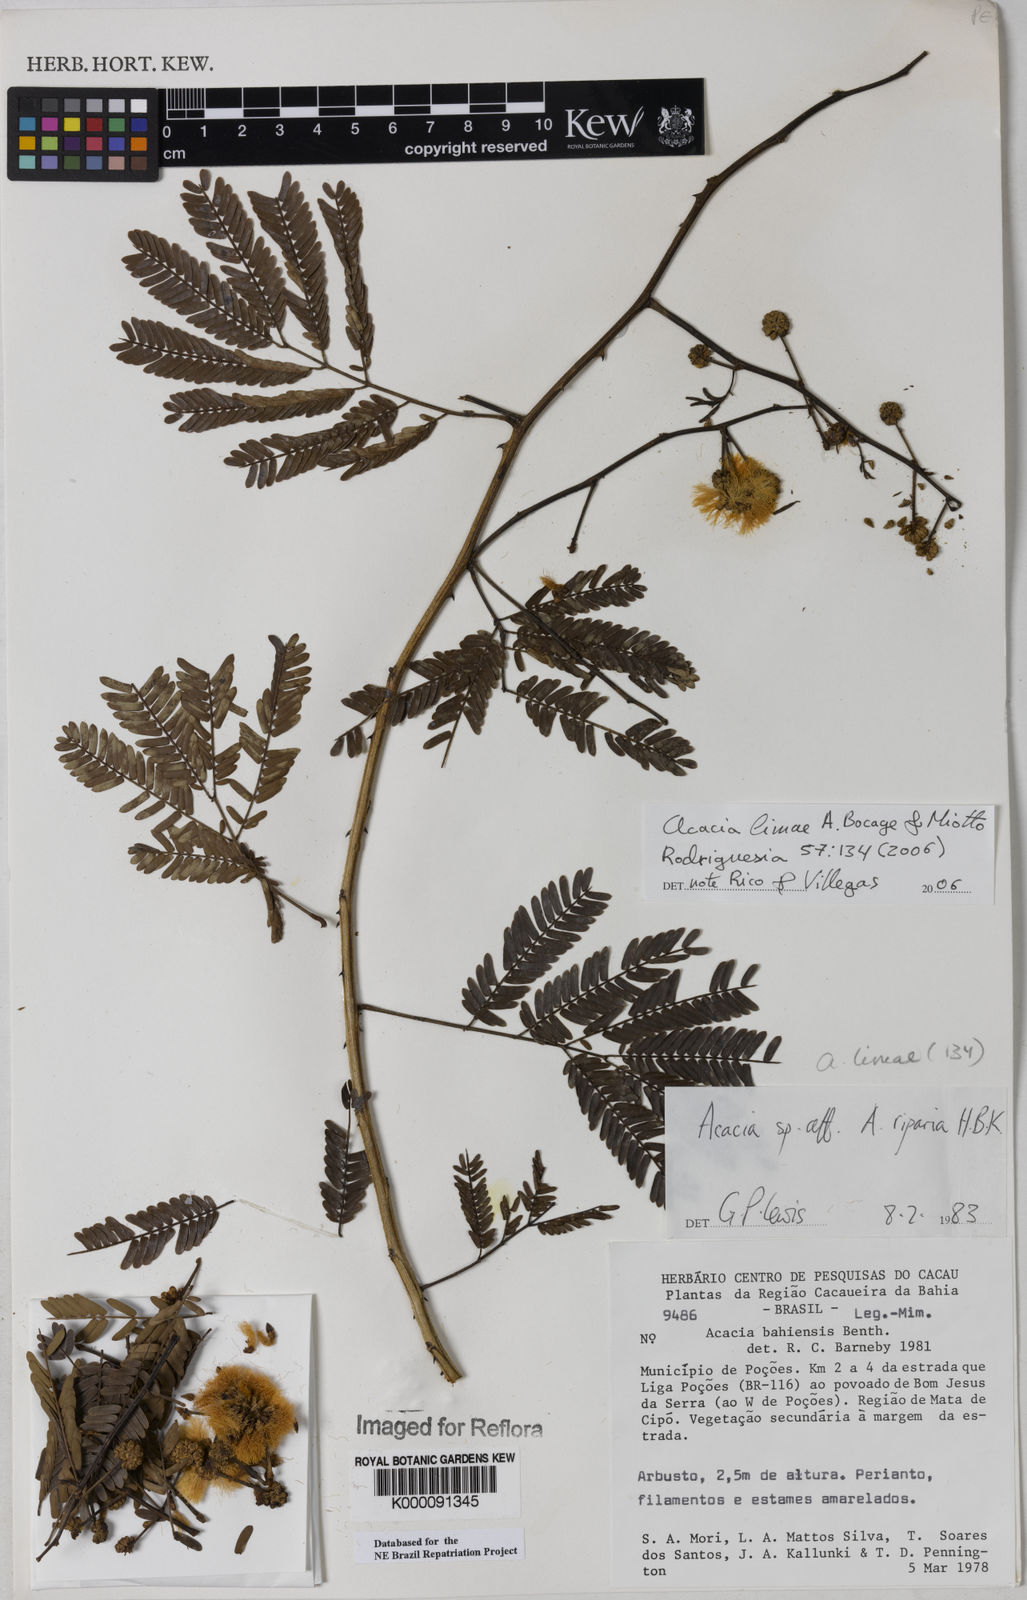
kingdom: Plantae
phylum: Tracheophyta
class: Magnoliopsida
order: Fabales
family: Fabaceae
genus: Senegalia
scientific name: Senegalia lasiophylla
